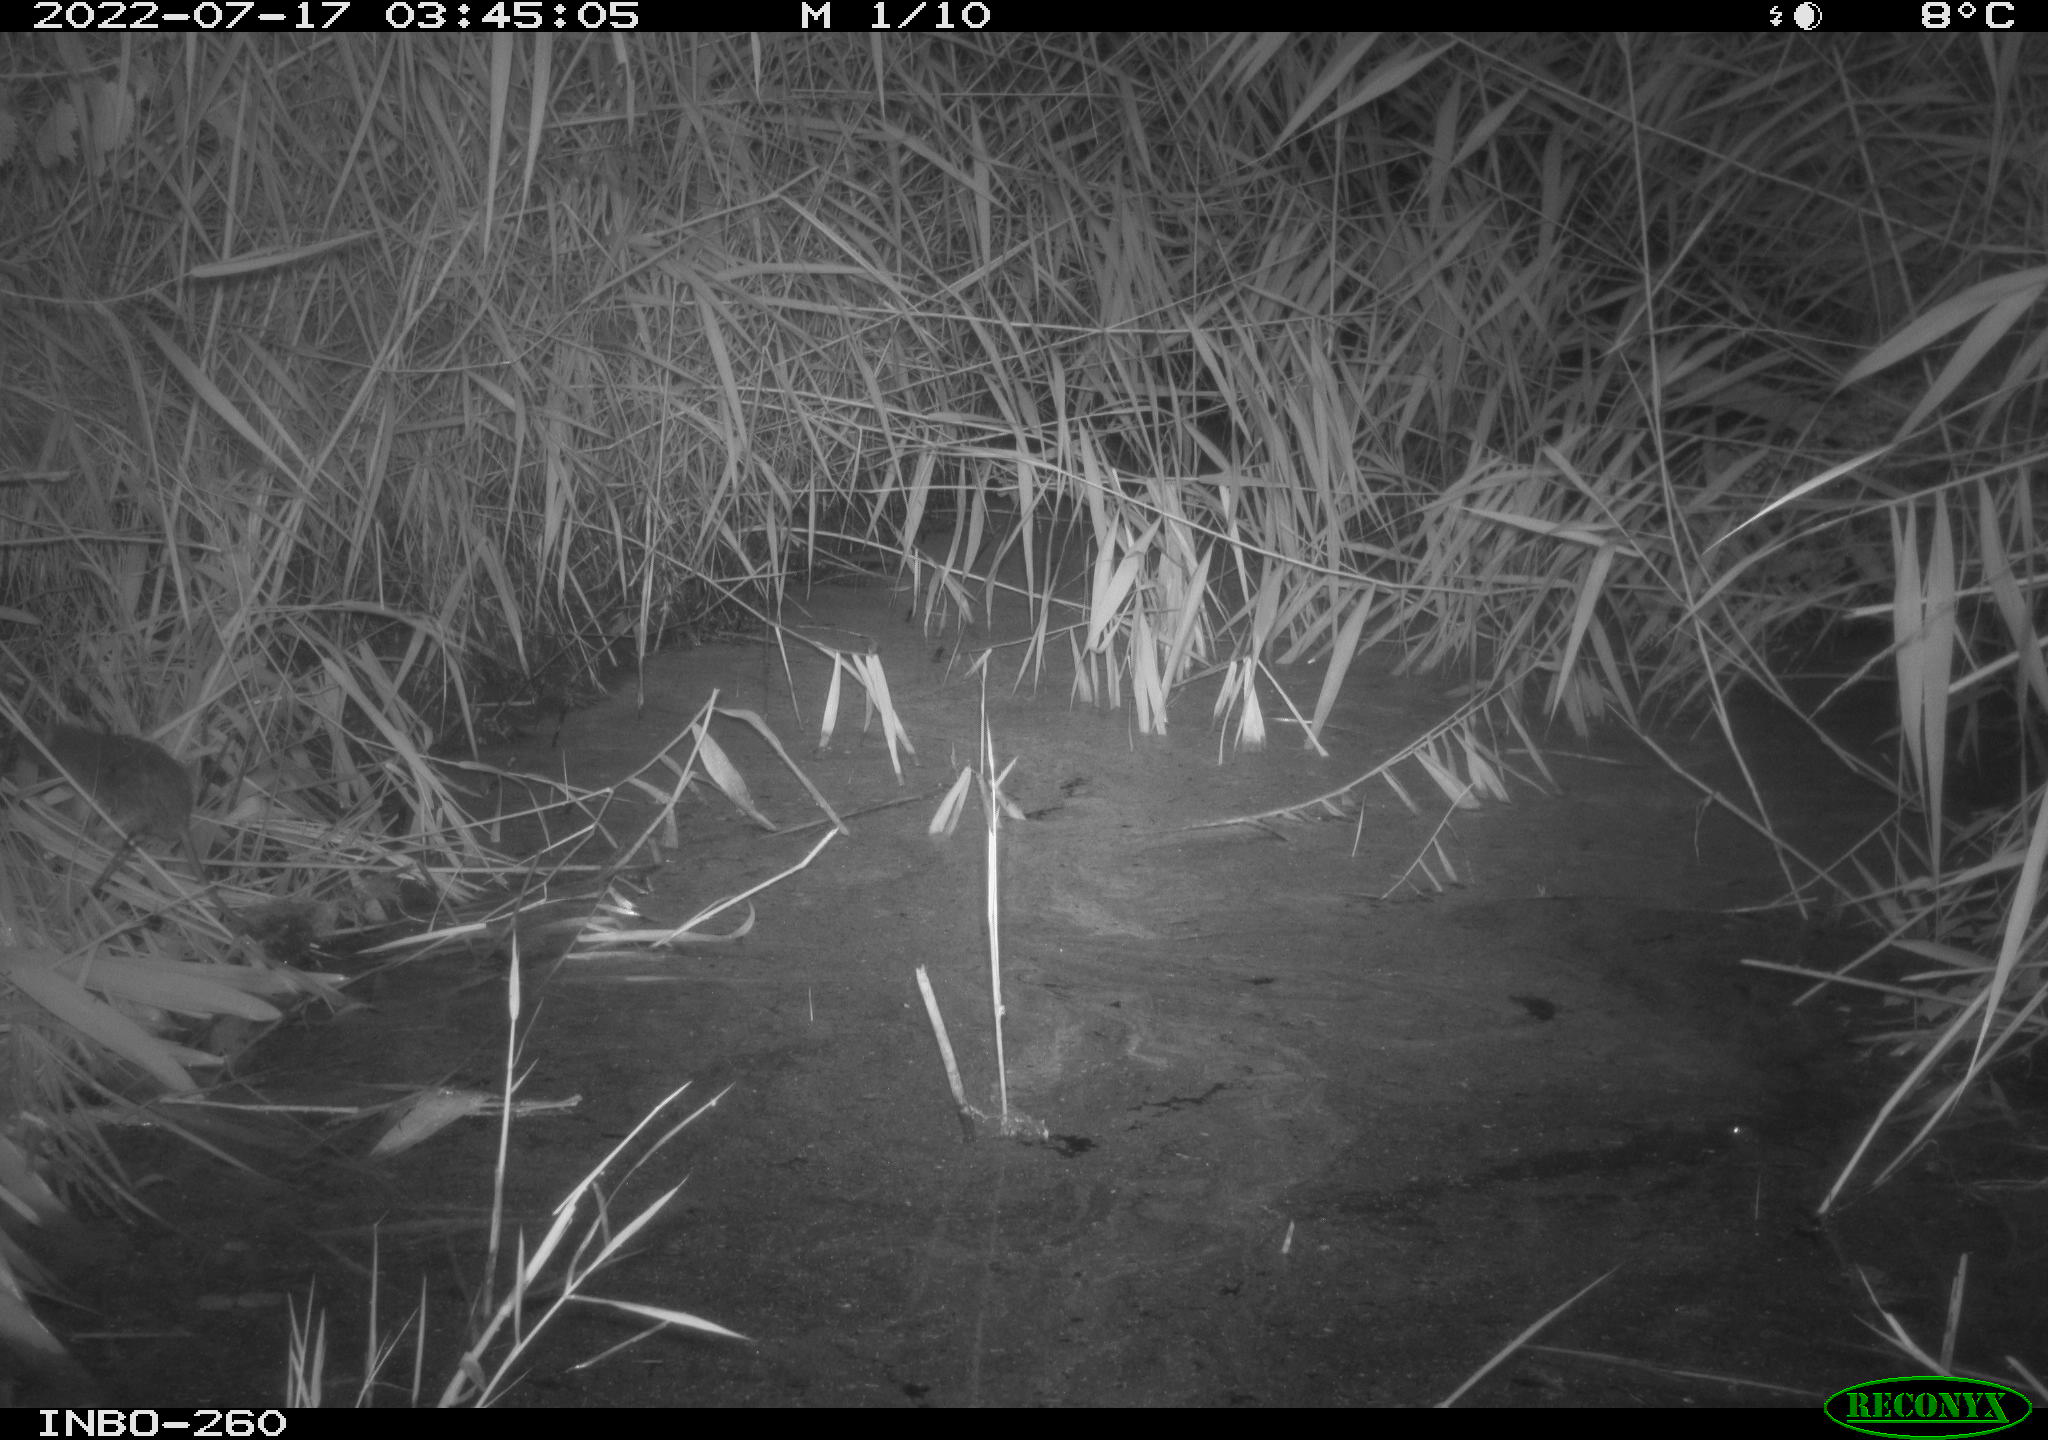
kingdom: Animalia
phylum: Chordata
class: Mammalia
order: Rodentia
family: Muridae
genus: Rattus
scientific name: Rattus norvegicus
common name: Brown rat
